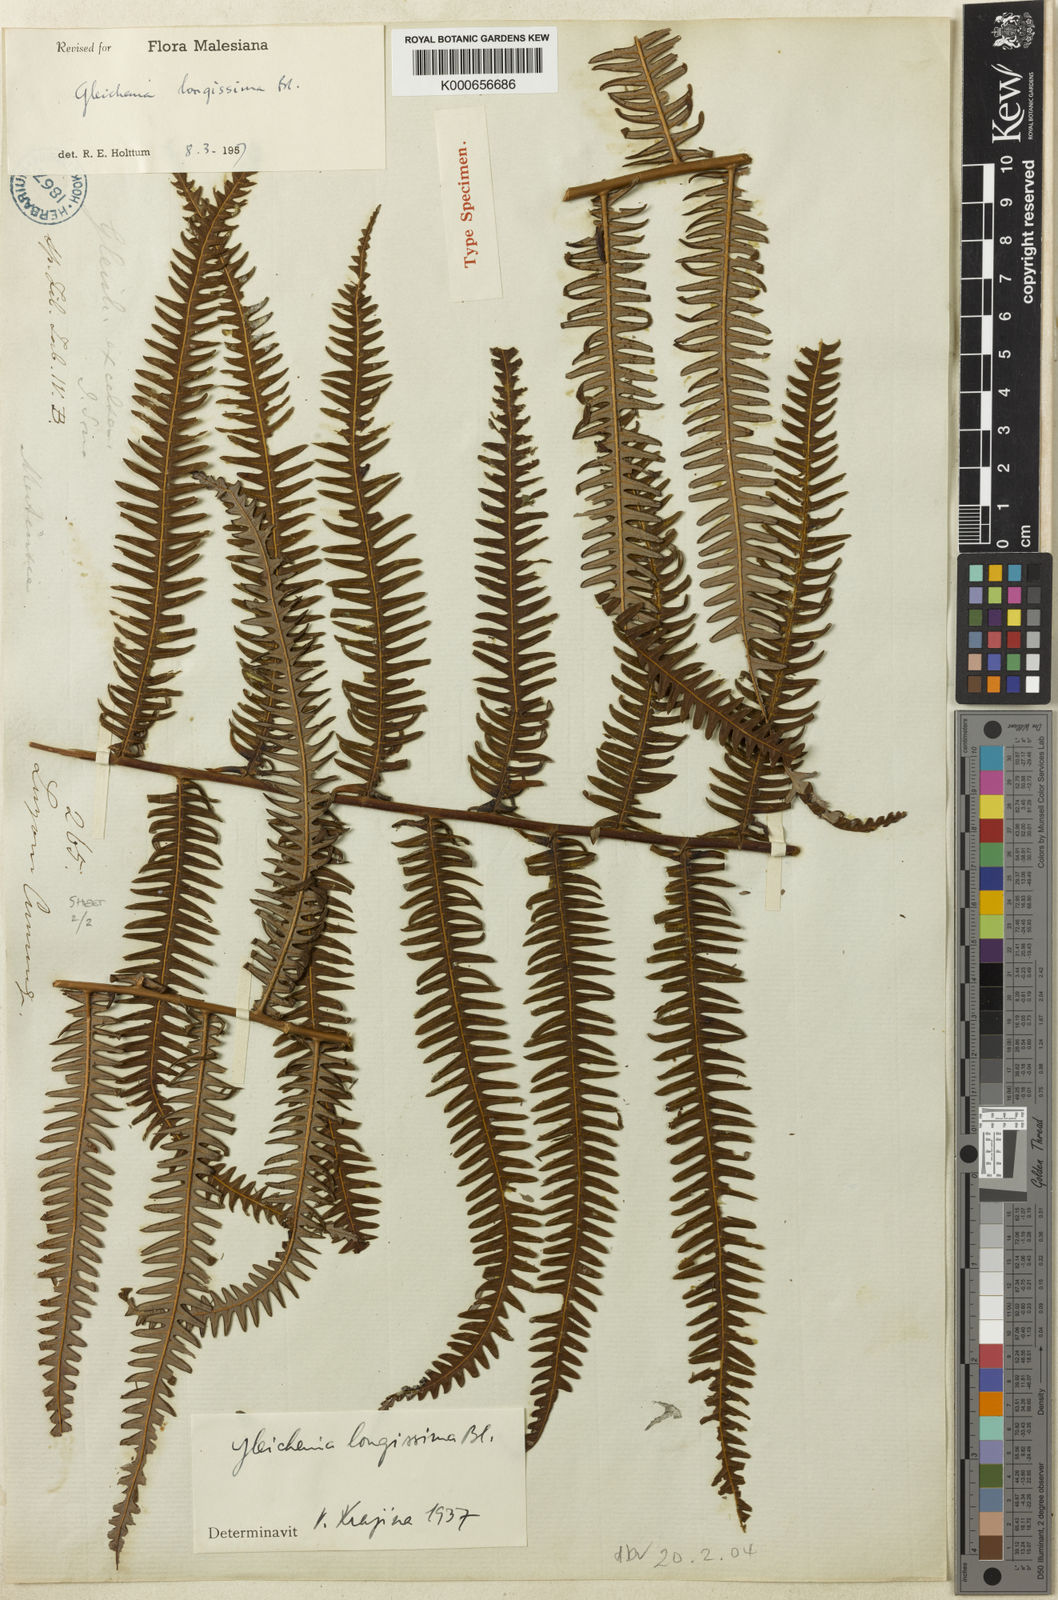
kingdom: Plantae
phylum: Tracheophyta
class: Polypodiopsida
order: Gleicheniales
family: Gleicheniaceae
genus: Diplopterygium
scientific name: Diplopterygium longissimum
